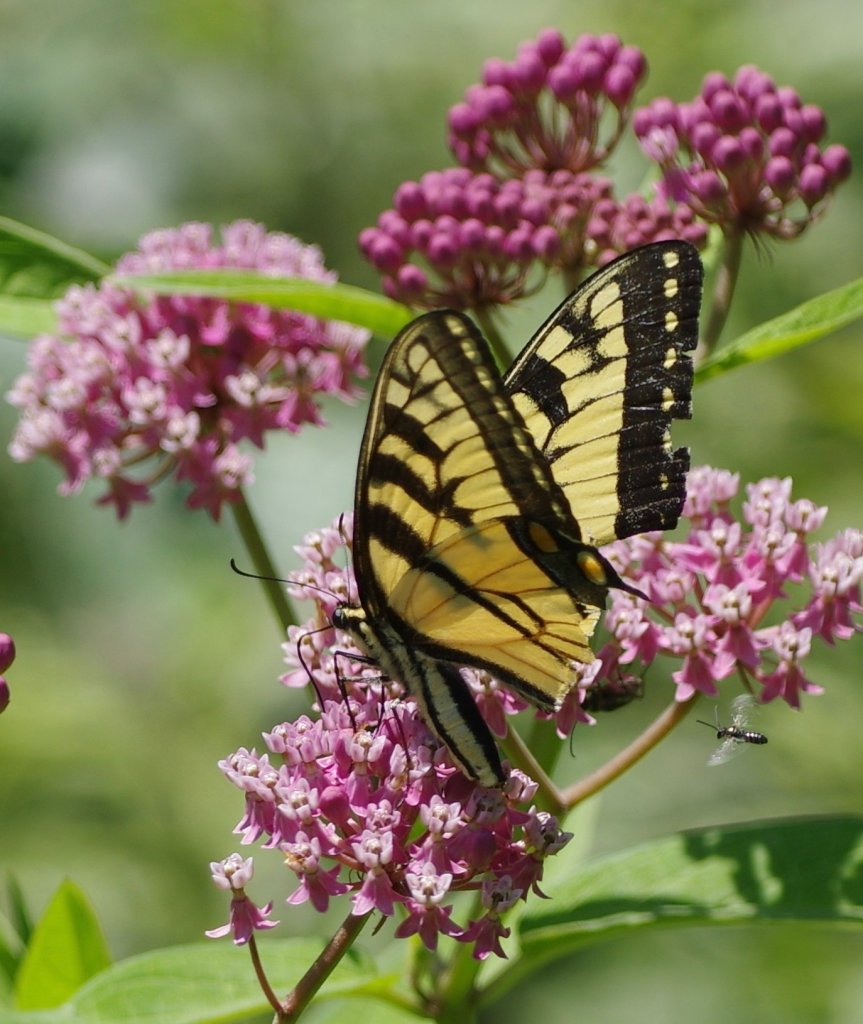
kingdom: Animalia
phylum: Arthropoda
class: Insecta
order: Lepidoptera
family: Papilionidae
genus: Pterourus
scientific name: Pterourus
